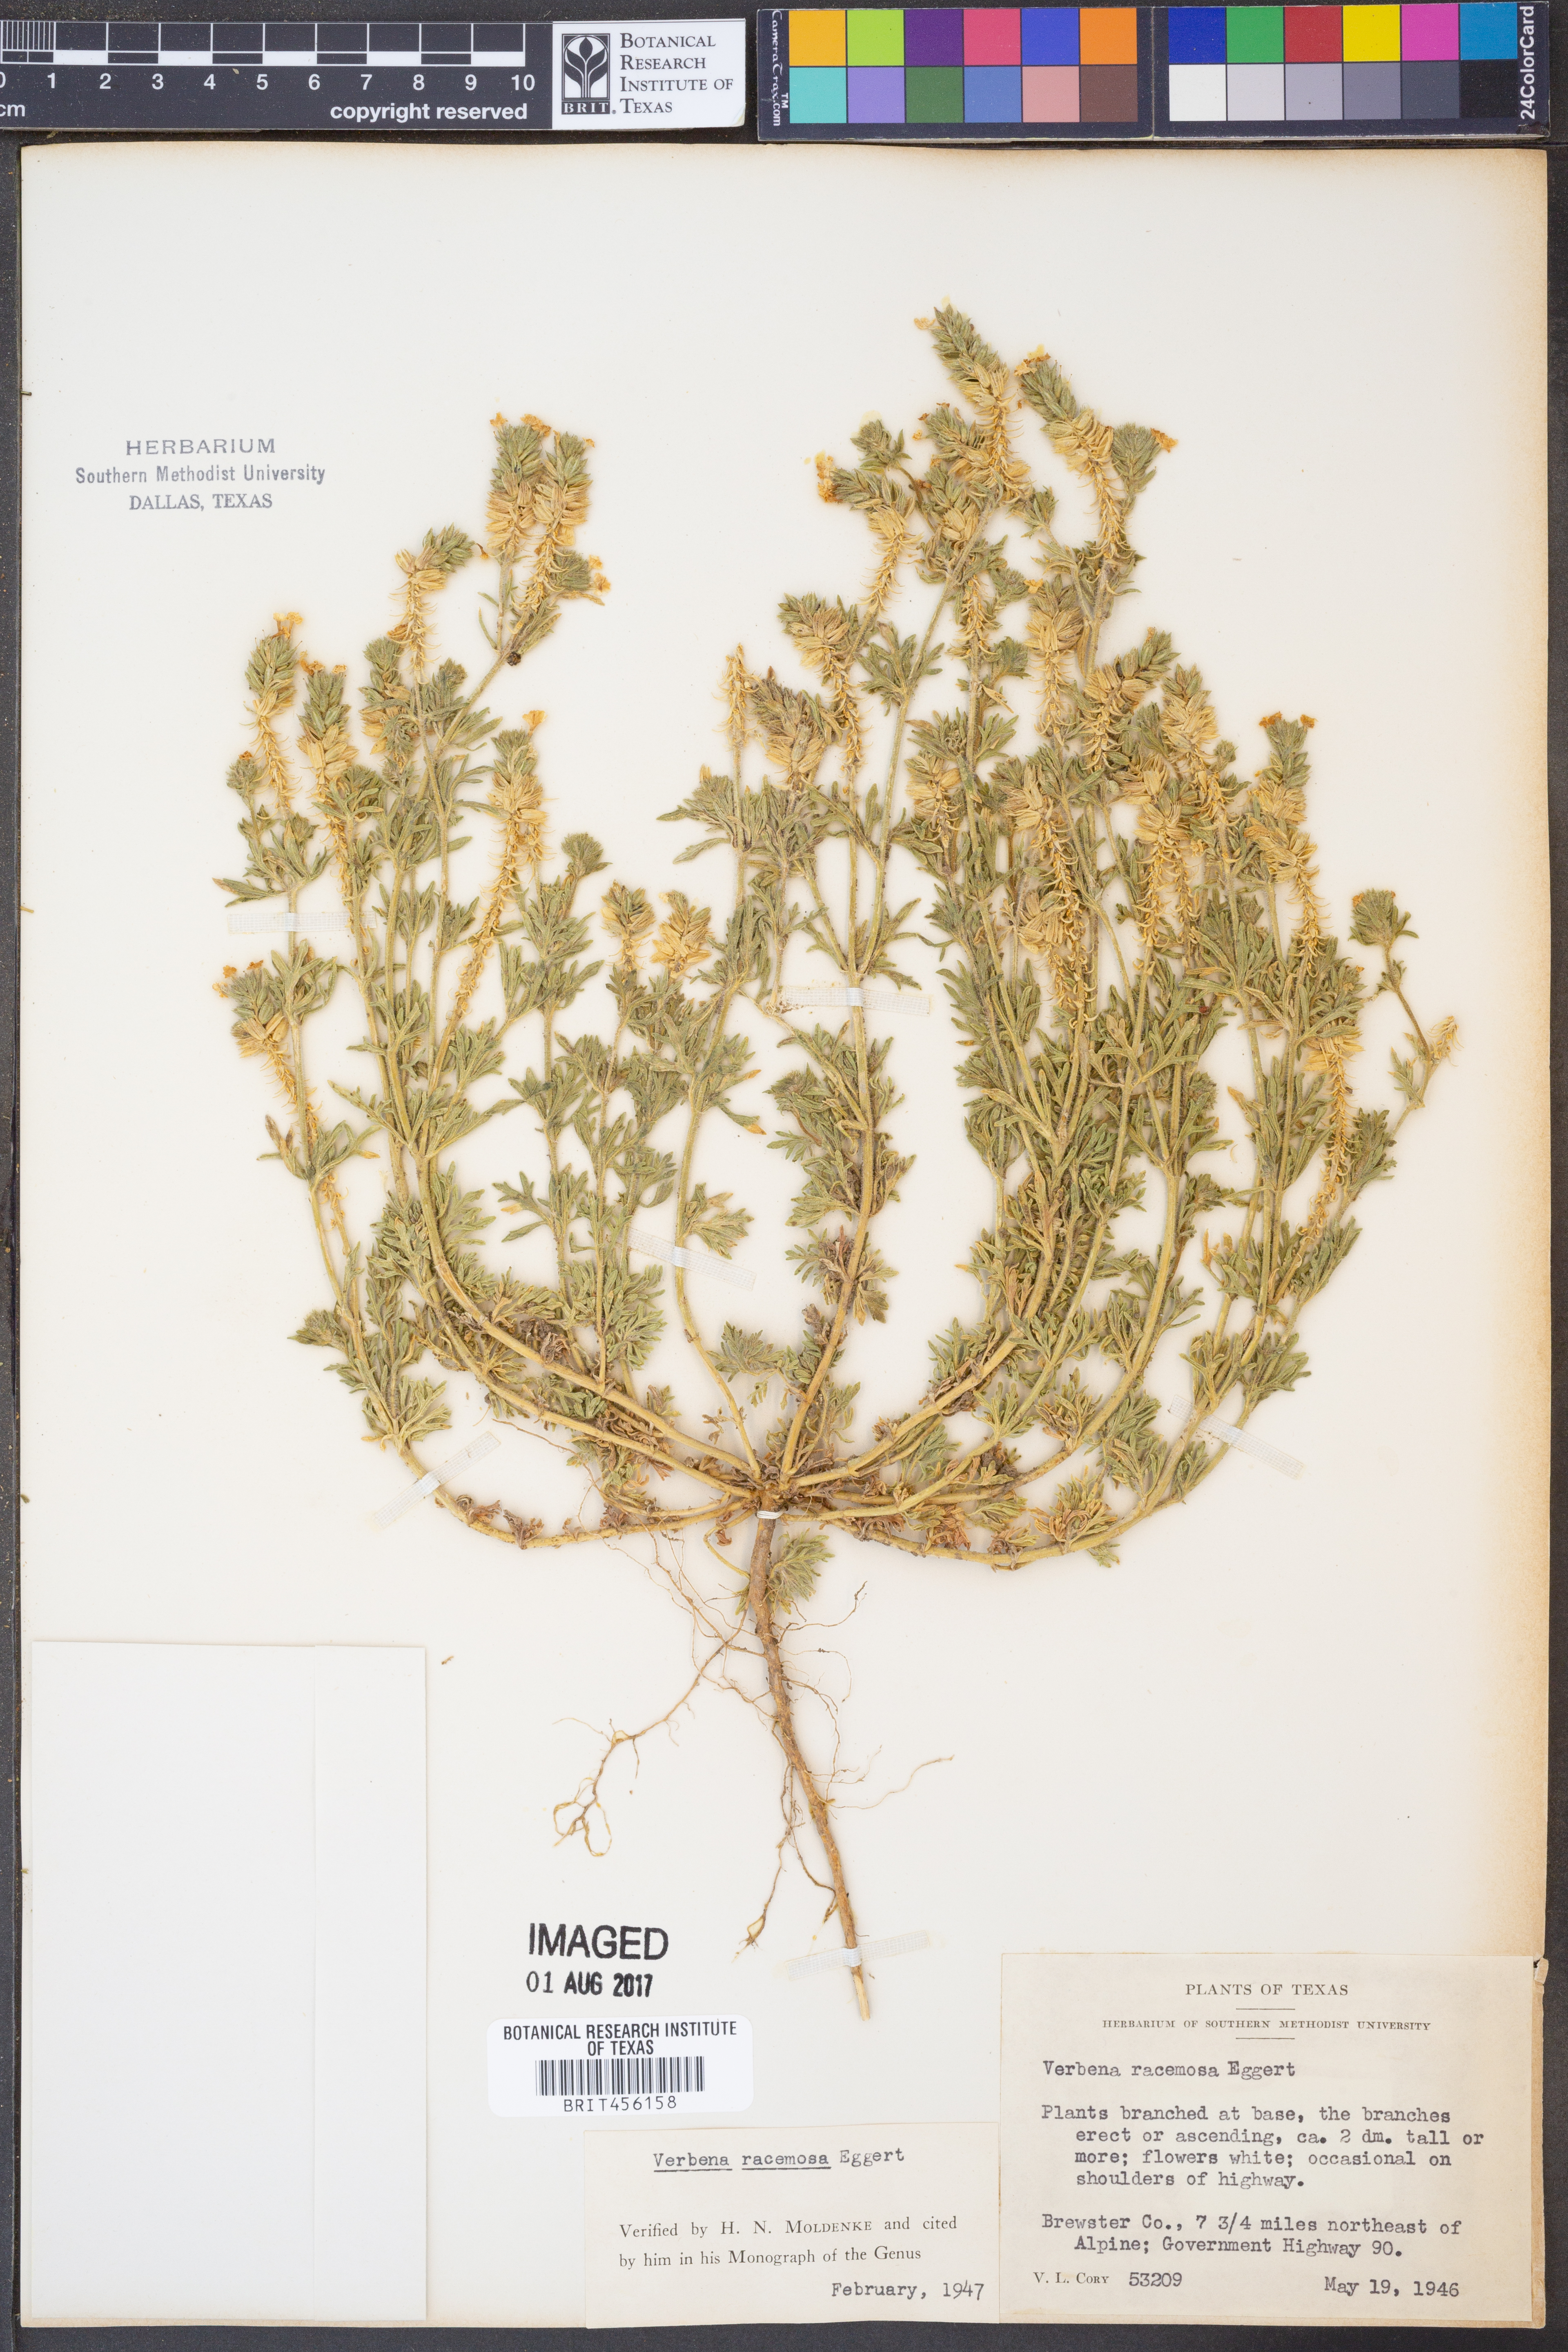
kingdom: Plantae
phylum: Tracheophyta
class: Magnoliopsida
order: Lamiales
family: Verbenaceae
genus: Verbena
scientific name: Verbena racemosa
